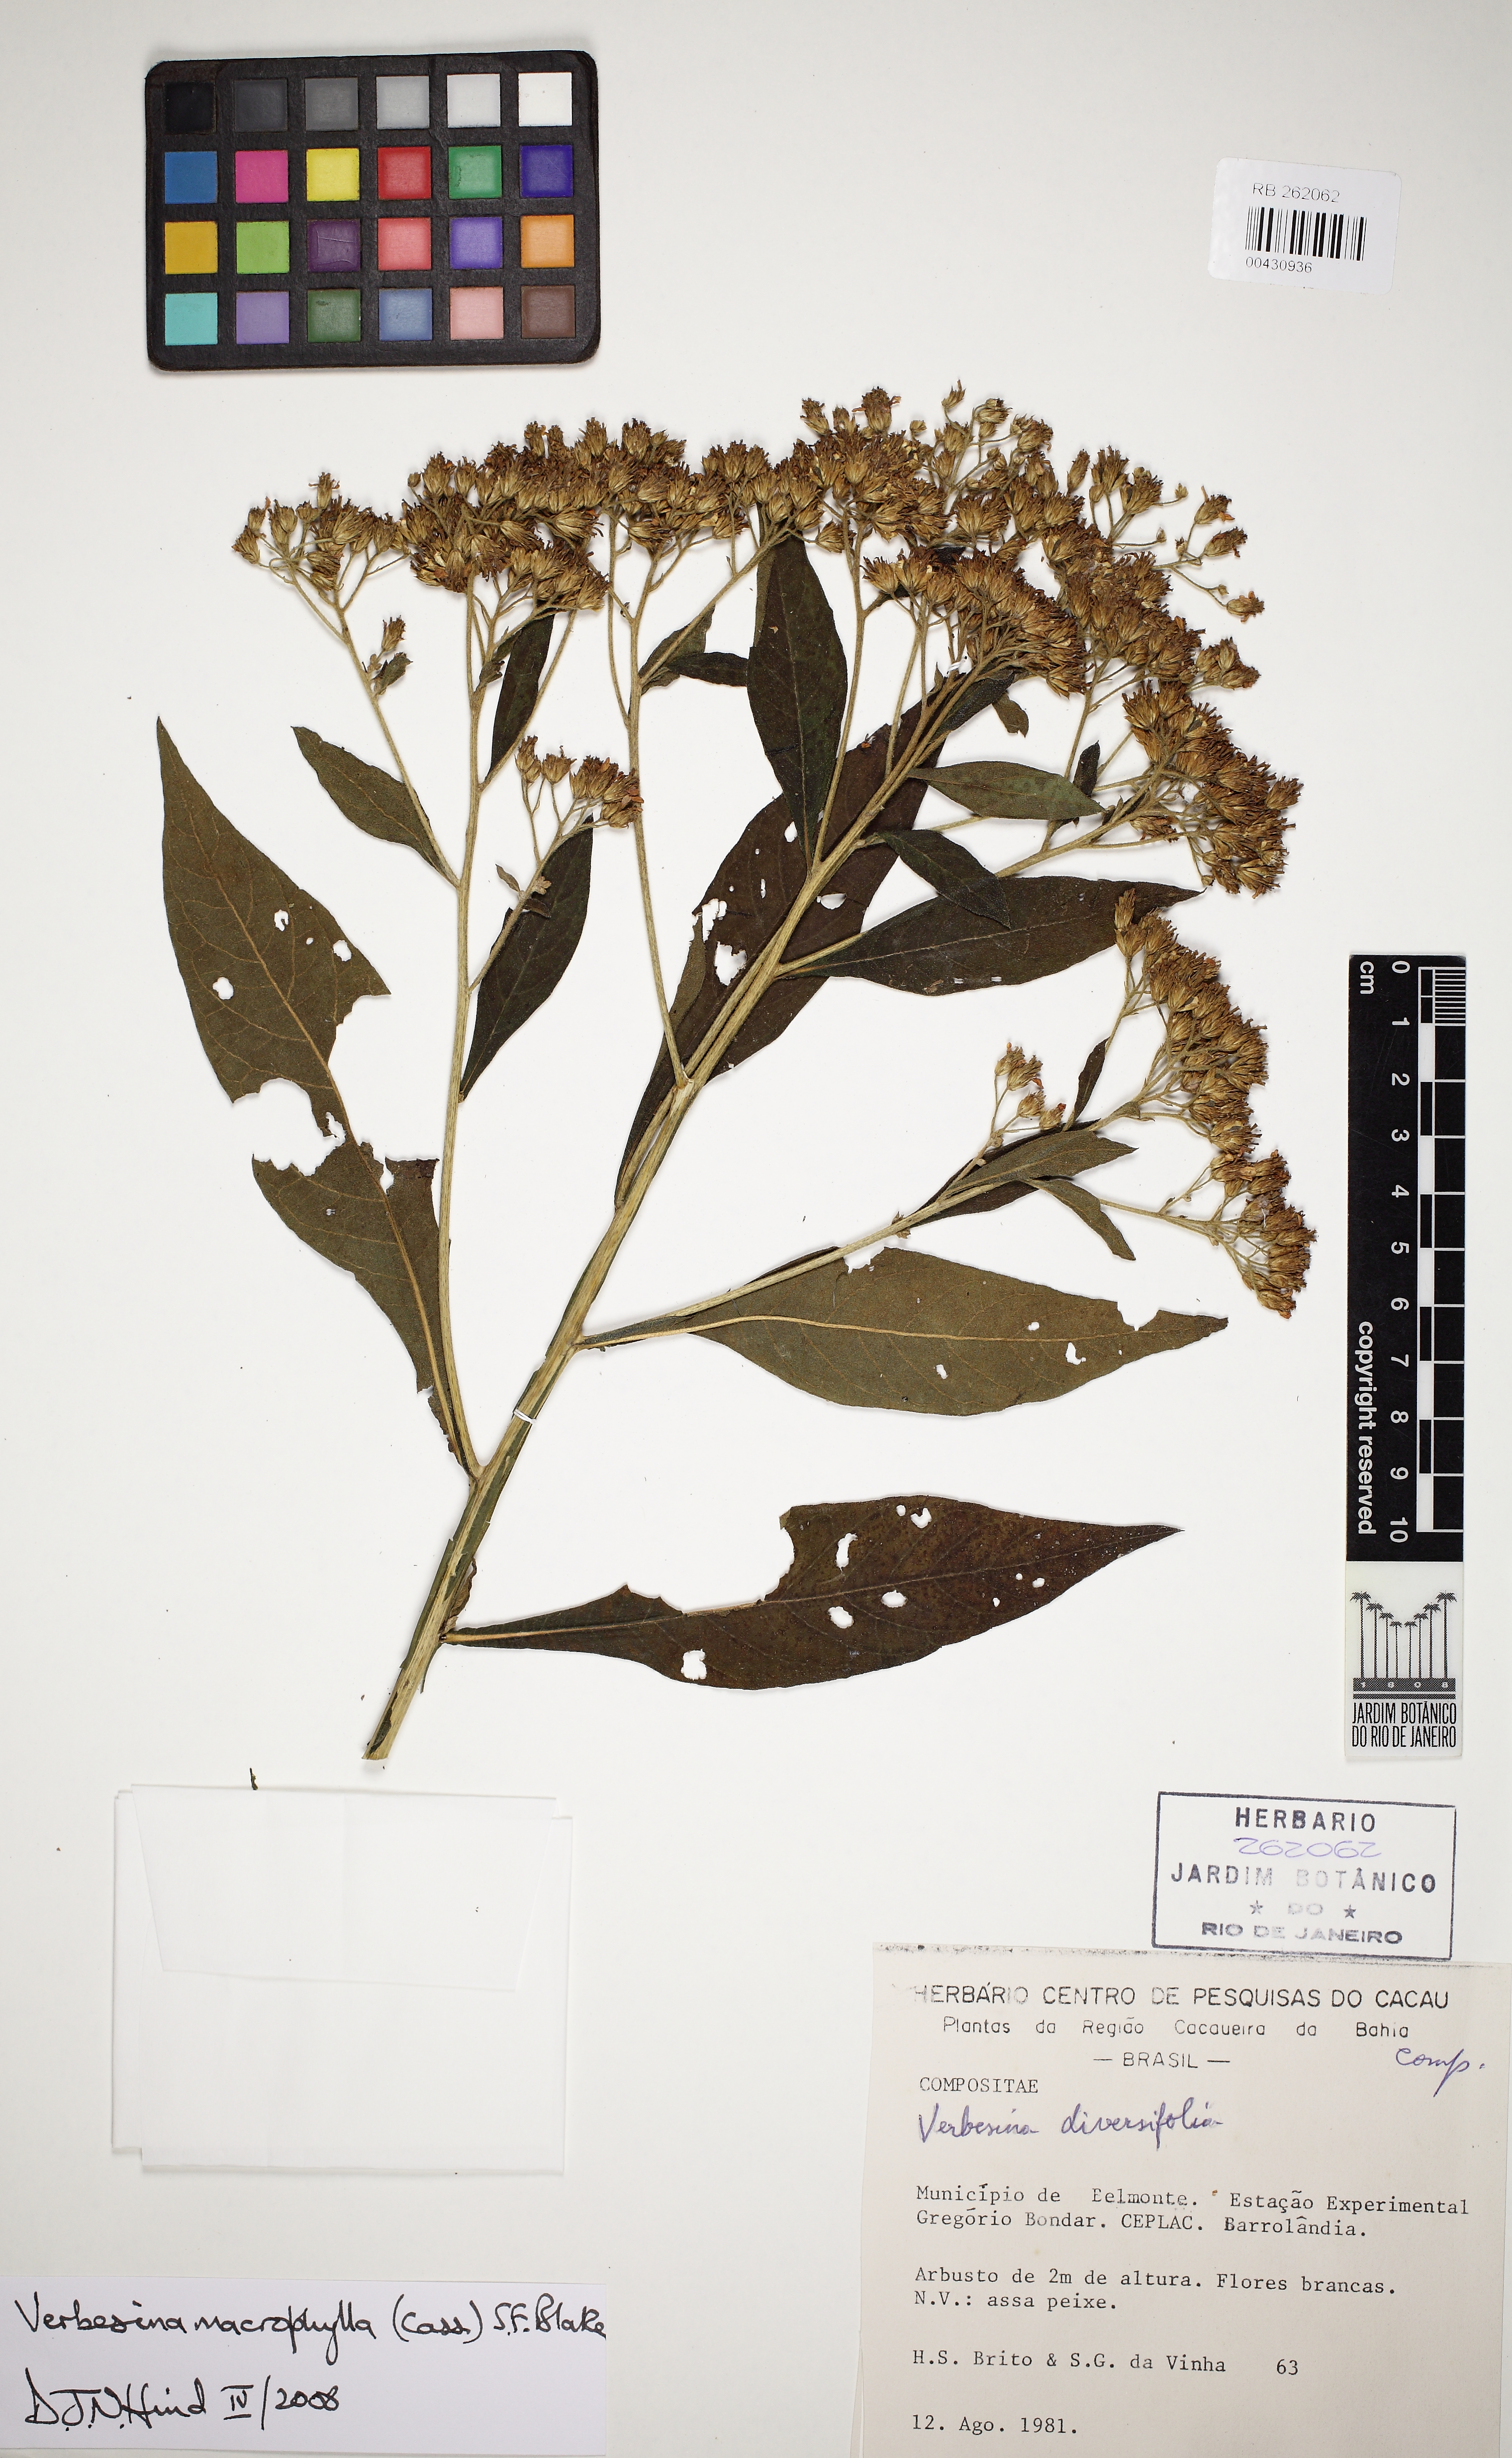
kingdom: Plantae
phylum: Tracheophyta
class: Magnoliopsida
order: Asterales
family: Asteraceae
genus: Verbesina
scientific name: Verbesina macrophylla
